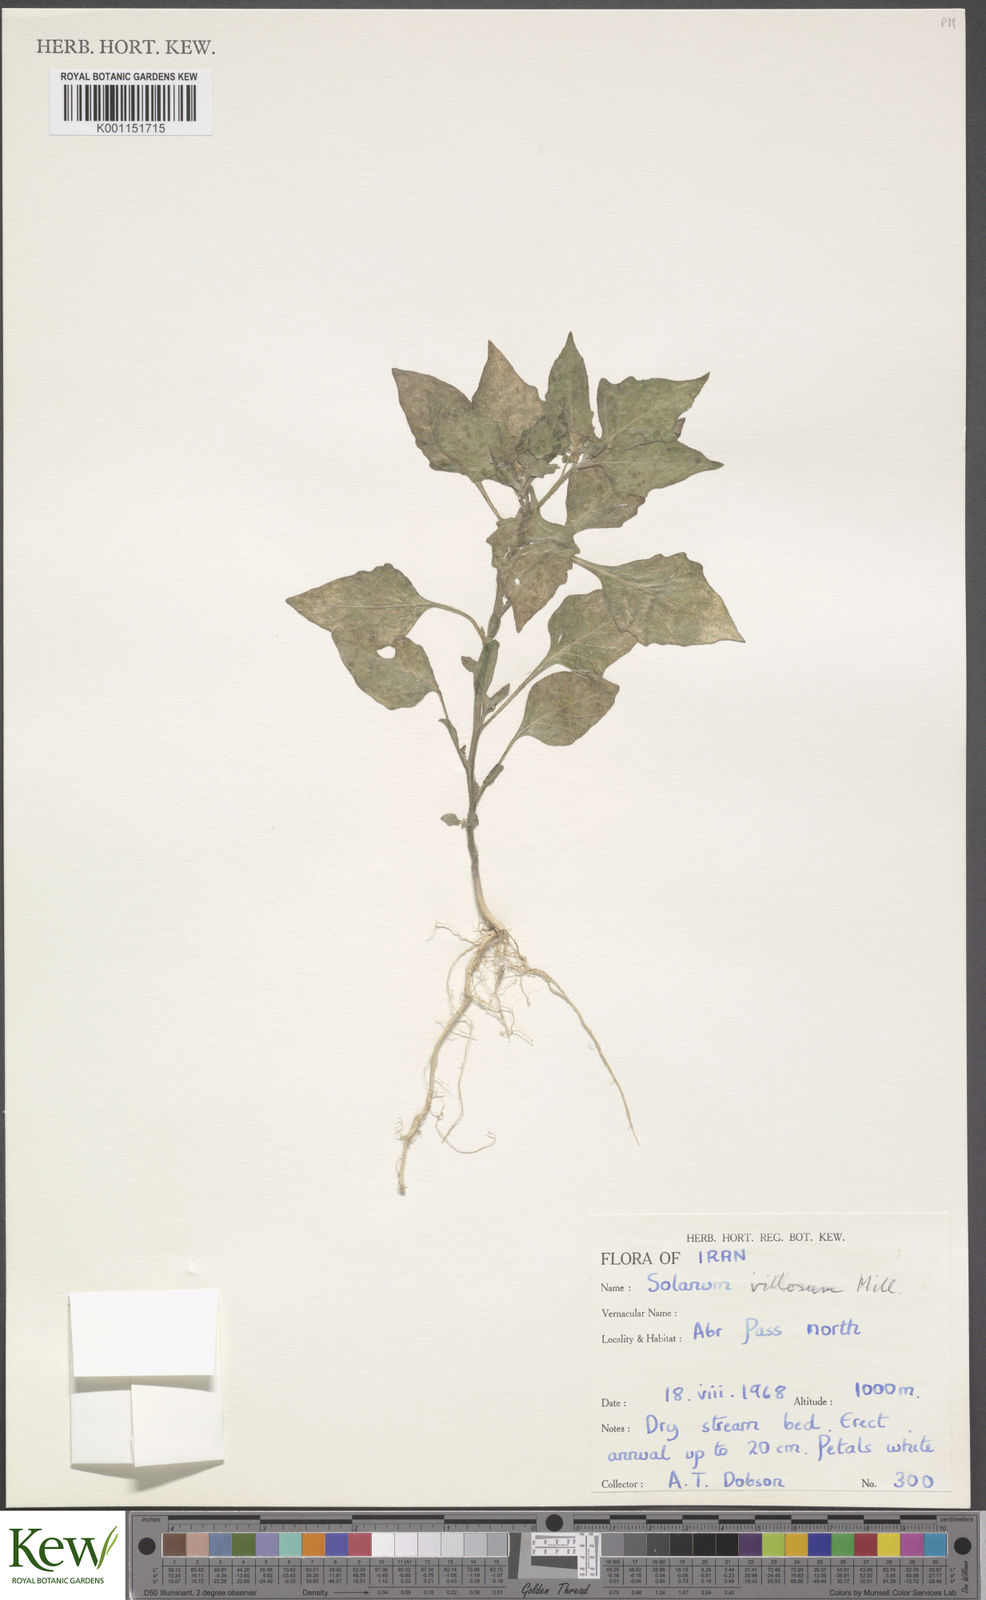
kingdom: Plantae
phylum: Tracheophyta
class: Magnoliopsida
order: Solanales
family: Solanaceae
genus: Solanum
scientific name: Solanum
